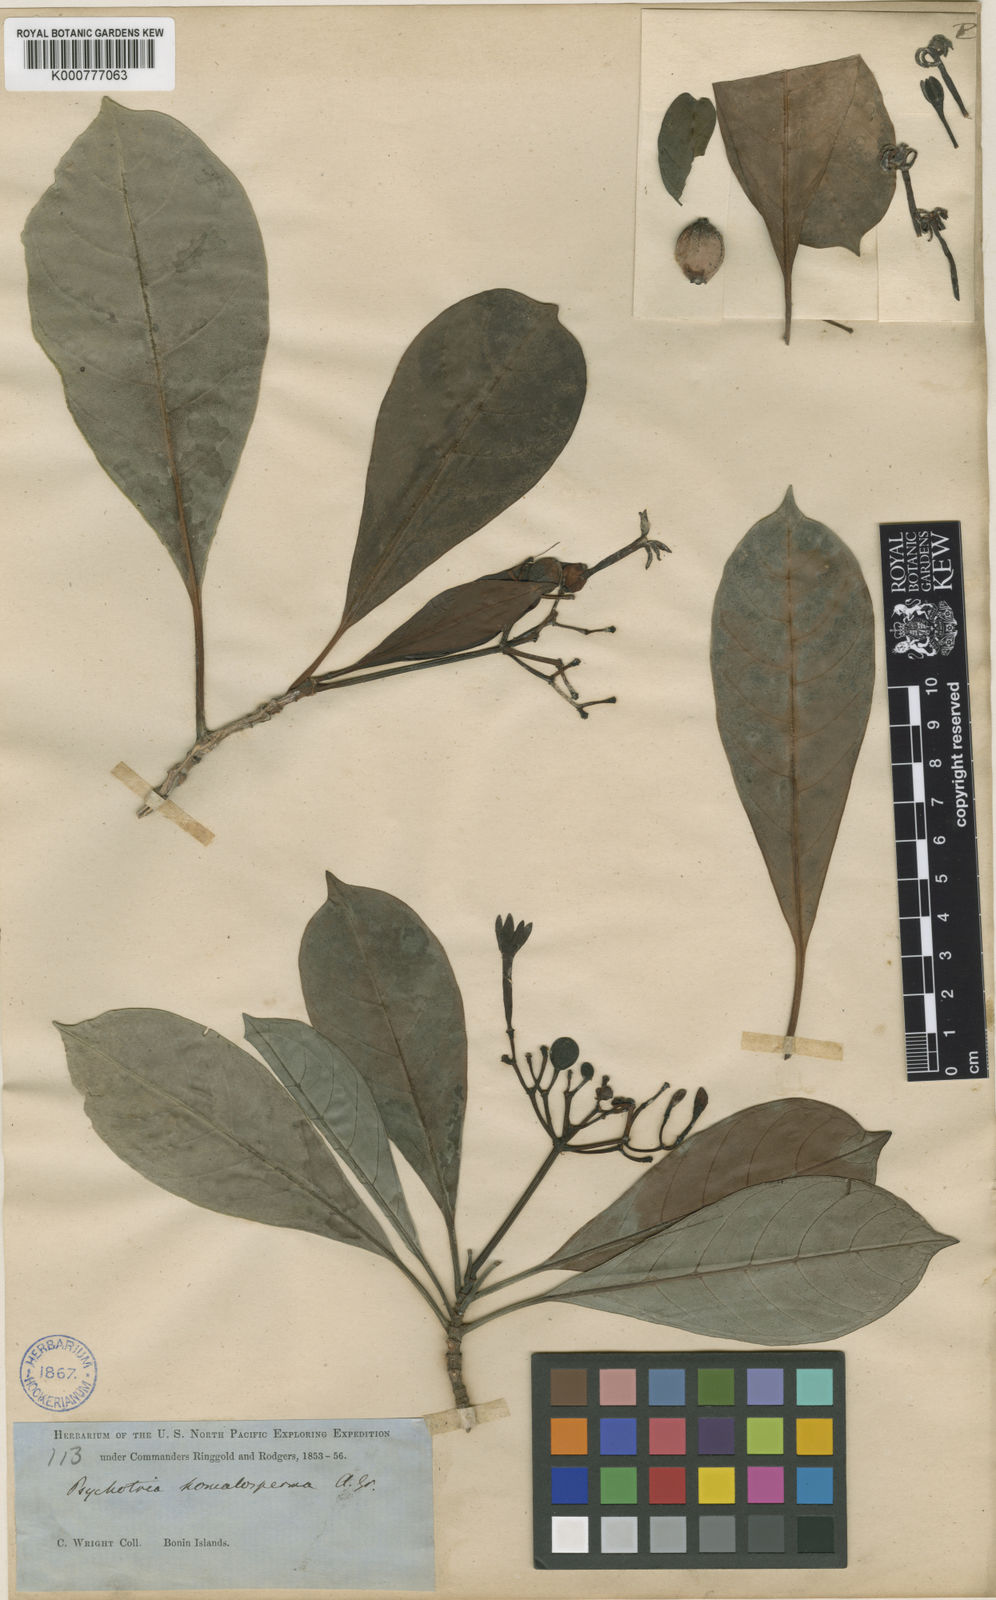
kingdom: Plantae
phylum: Tracheophyta
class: Magnoliopsida
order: Gentianales
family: Rubiaceae
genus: Psychotria
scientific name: Psychotria homalosperma
